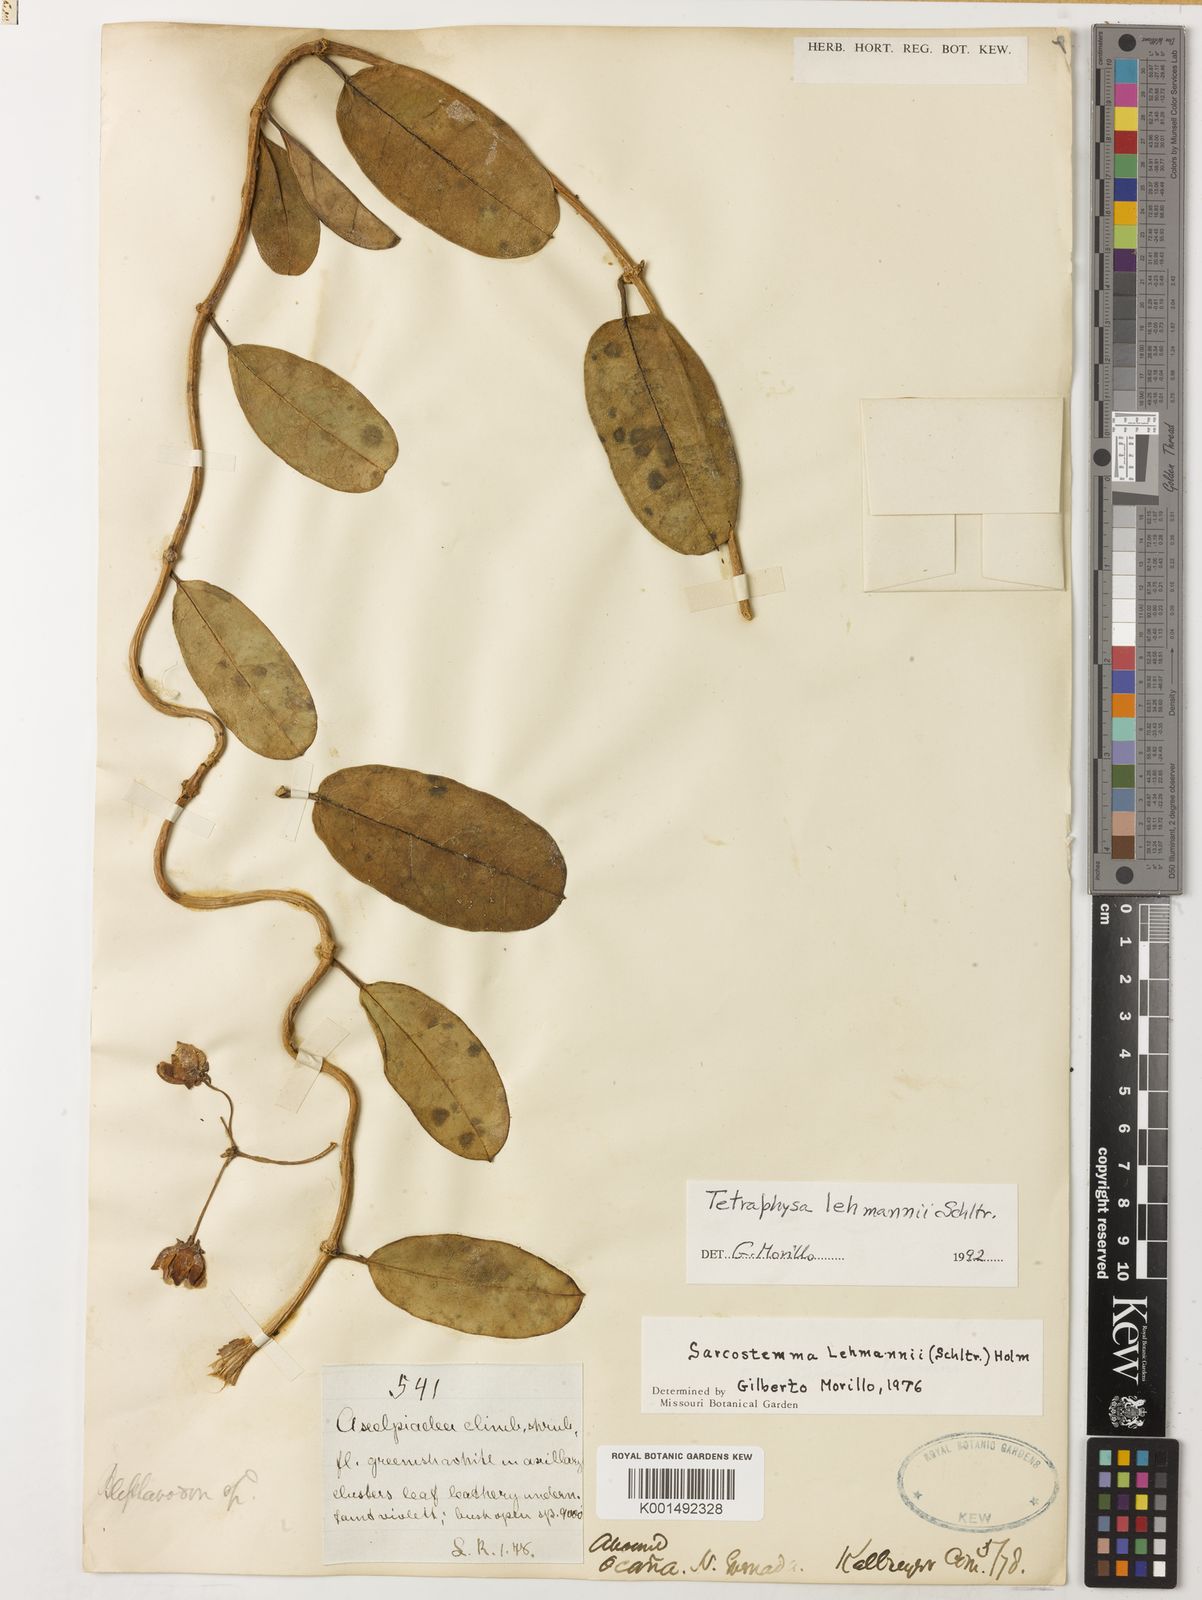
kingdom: Plantae
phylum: Tracheophyta
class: Magnoliopsida
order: Gentianales
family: Apocynaceae
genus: Pentacyphus
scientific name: Pentacyphus lehmannii
